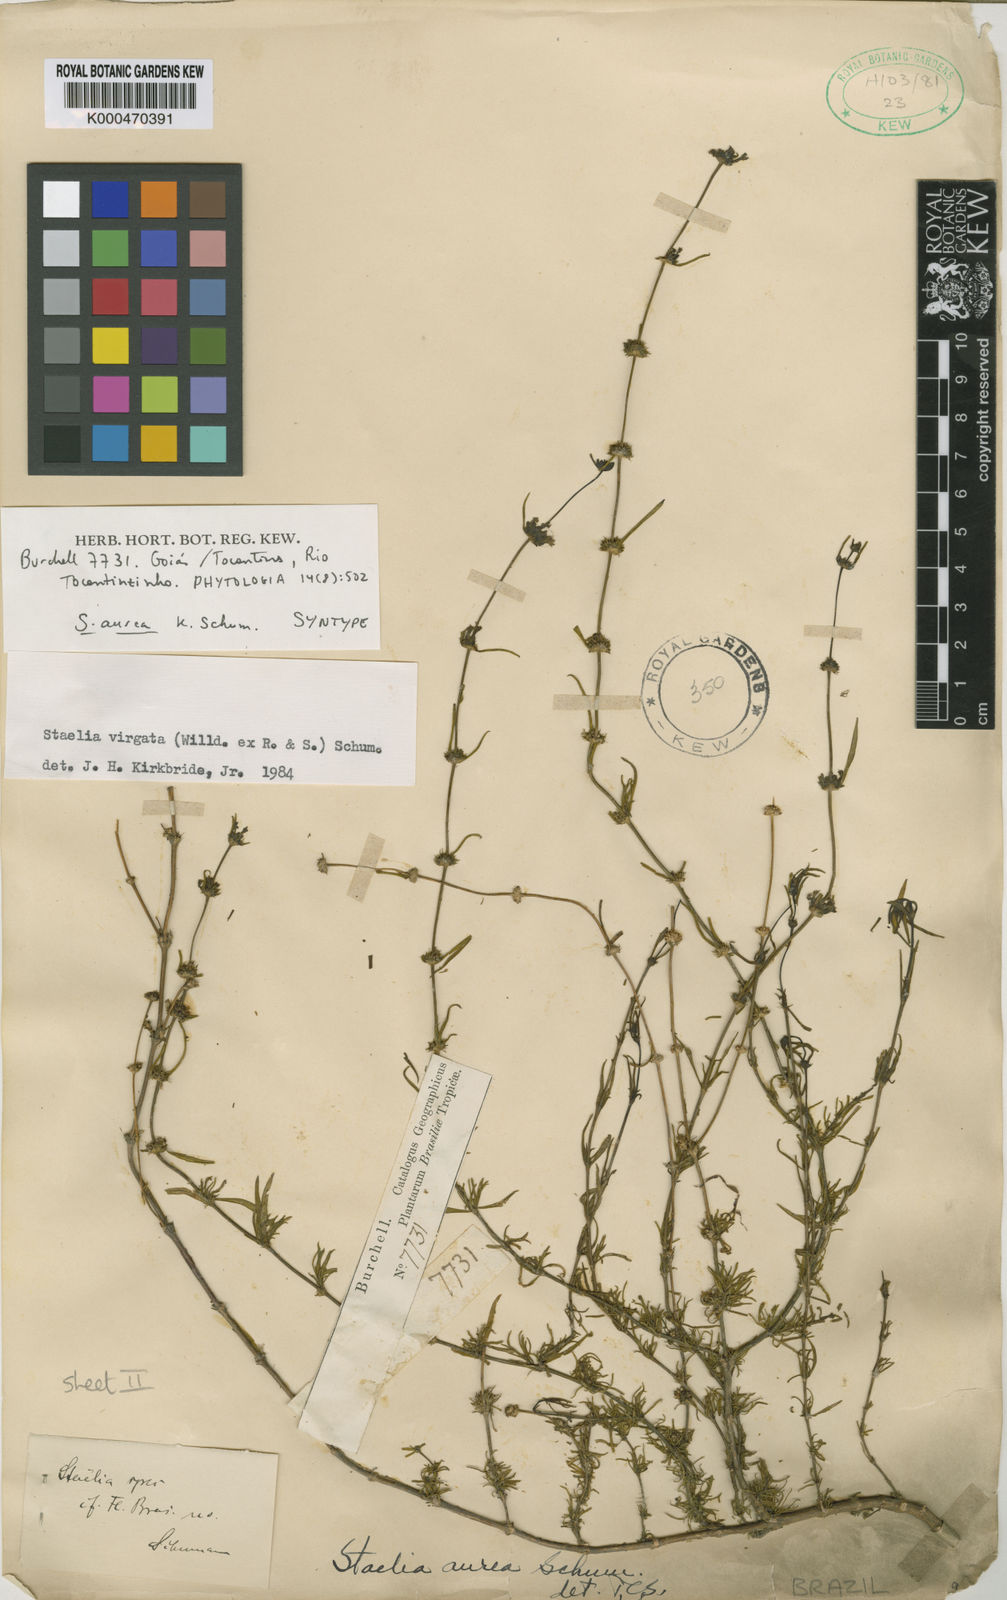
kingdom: Plantae
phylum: Tracheophyta
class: Magnoliopsida
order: Gentianales
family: Rubiaceae
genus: Staelia
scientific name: Staelia aurea
